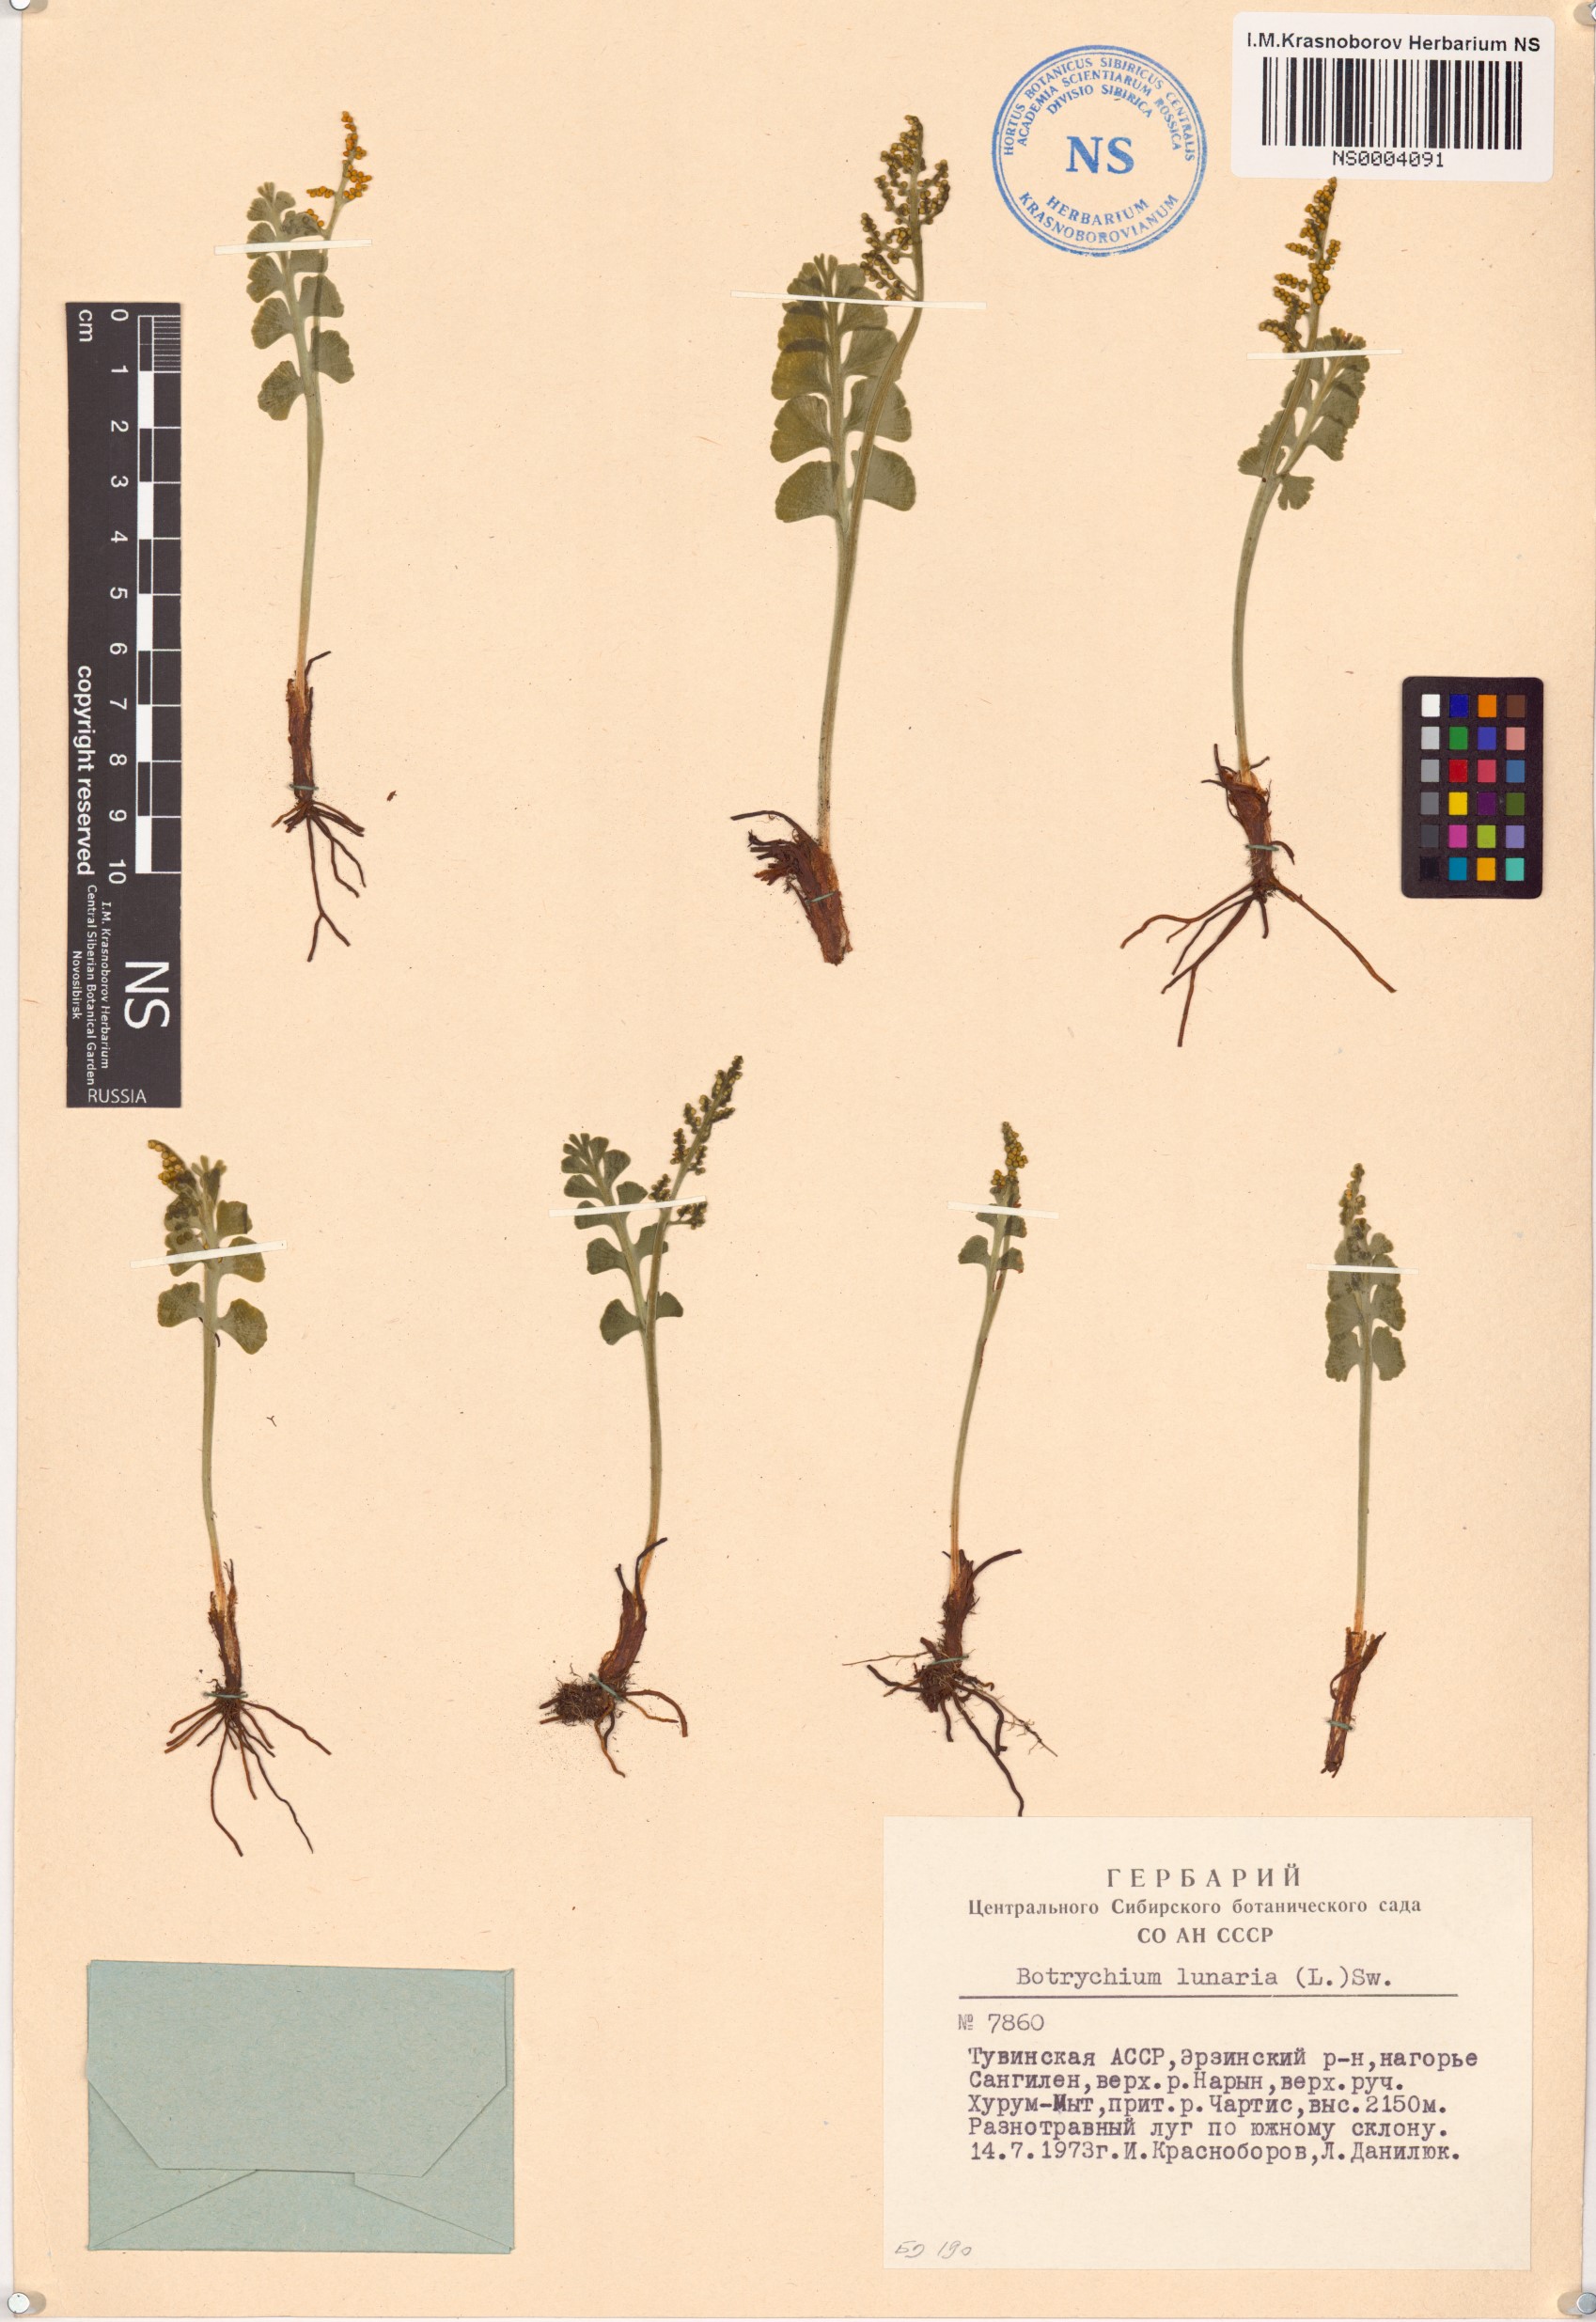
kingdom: Plantae
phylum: Tracheophyta
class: Polypodiopsida
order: Ophioglossales
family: Ophioglossaceae
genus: Botrychium
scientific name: Botrychium lunaria
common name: Moonwort
